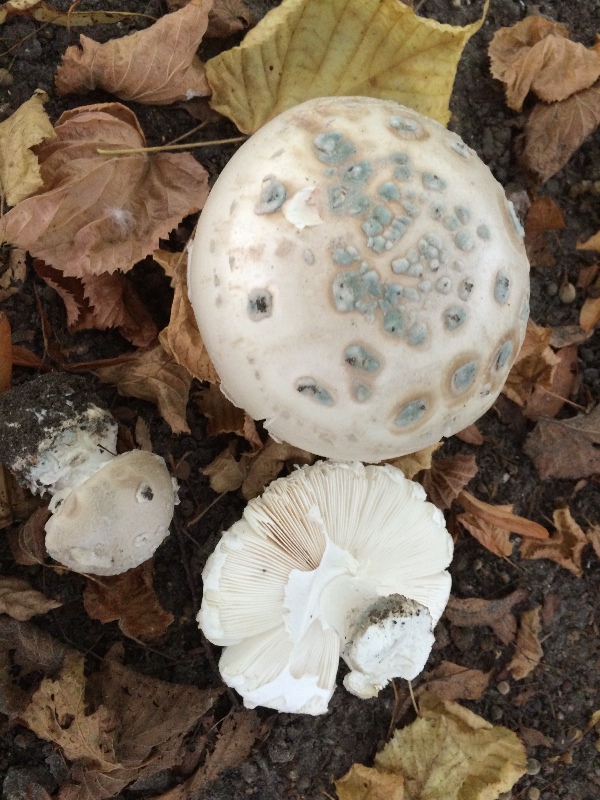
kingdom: Fungi
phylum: Basidiomycota
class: Agaricomycetes
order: Agaricales
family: Amanitaceae
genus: Amanita
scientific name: Amanita
